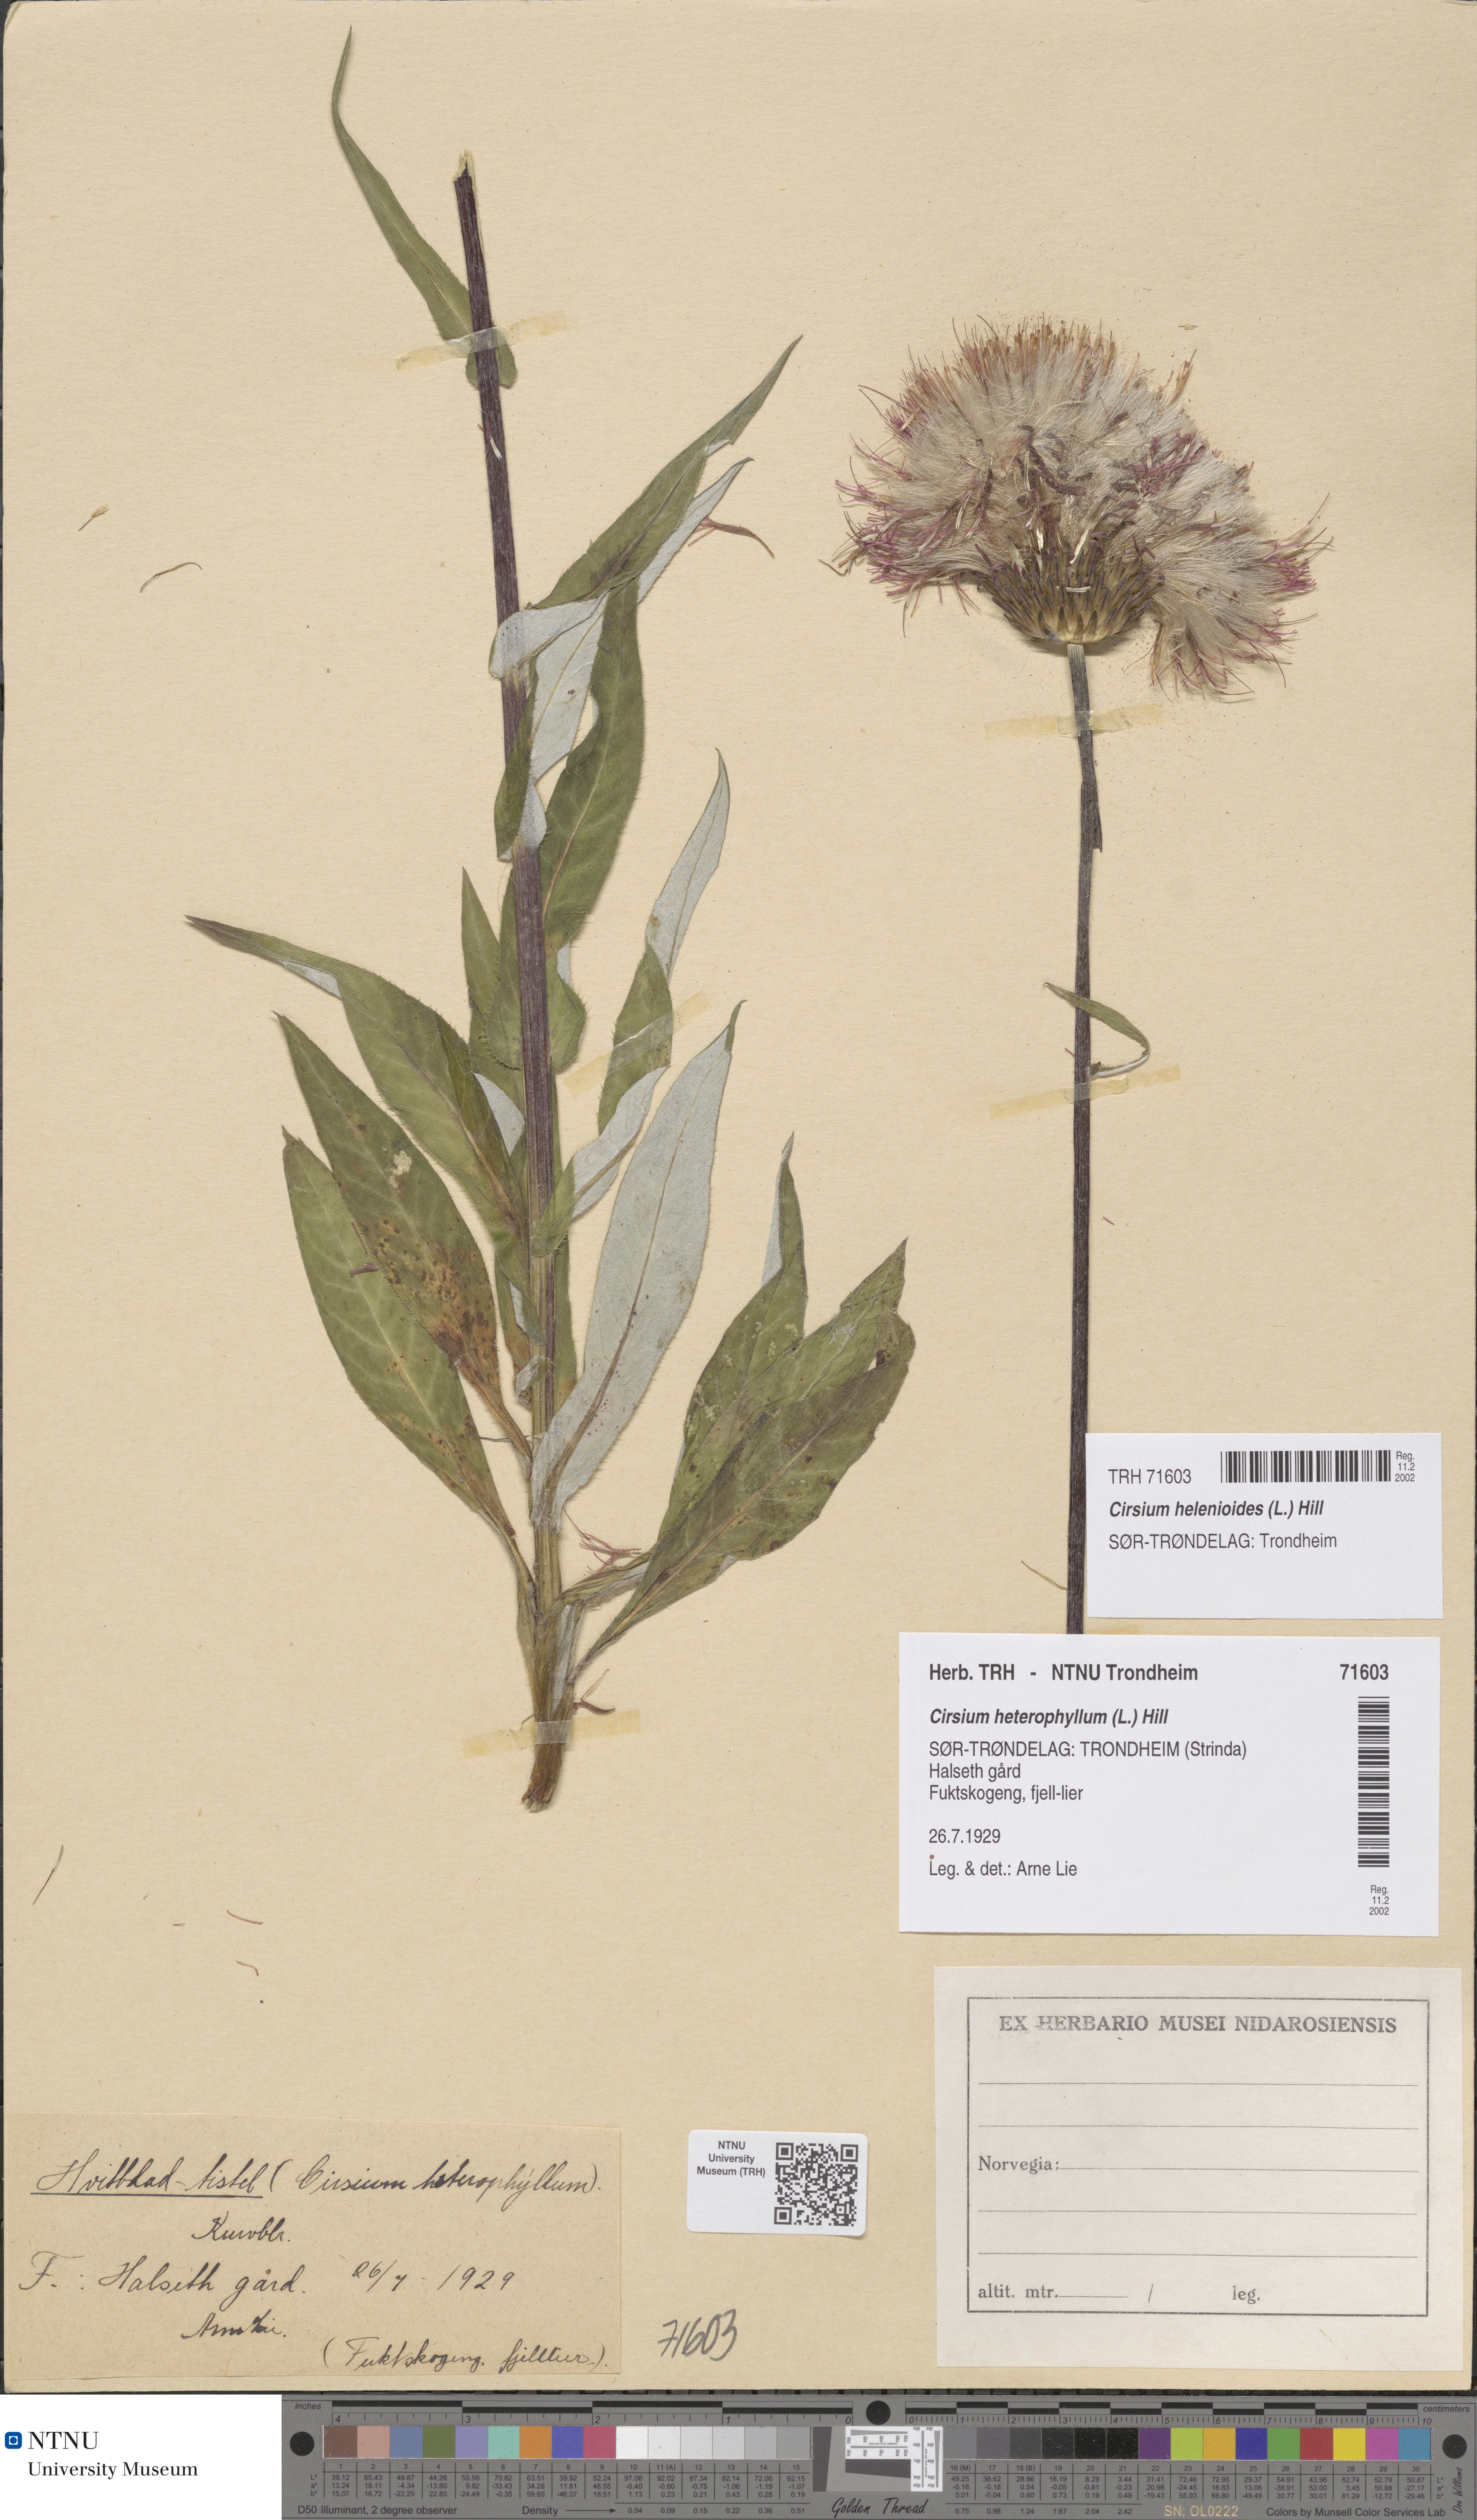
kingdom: Plantae
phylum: Tracheophyta
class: Magnoliopsida
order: Asterales
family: Asteraceae
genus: Cirsium
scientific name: Cirsium heterophyllum
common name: Melancholy thistle
